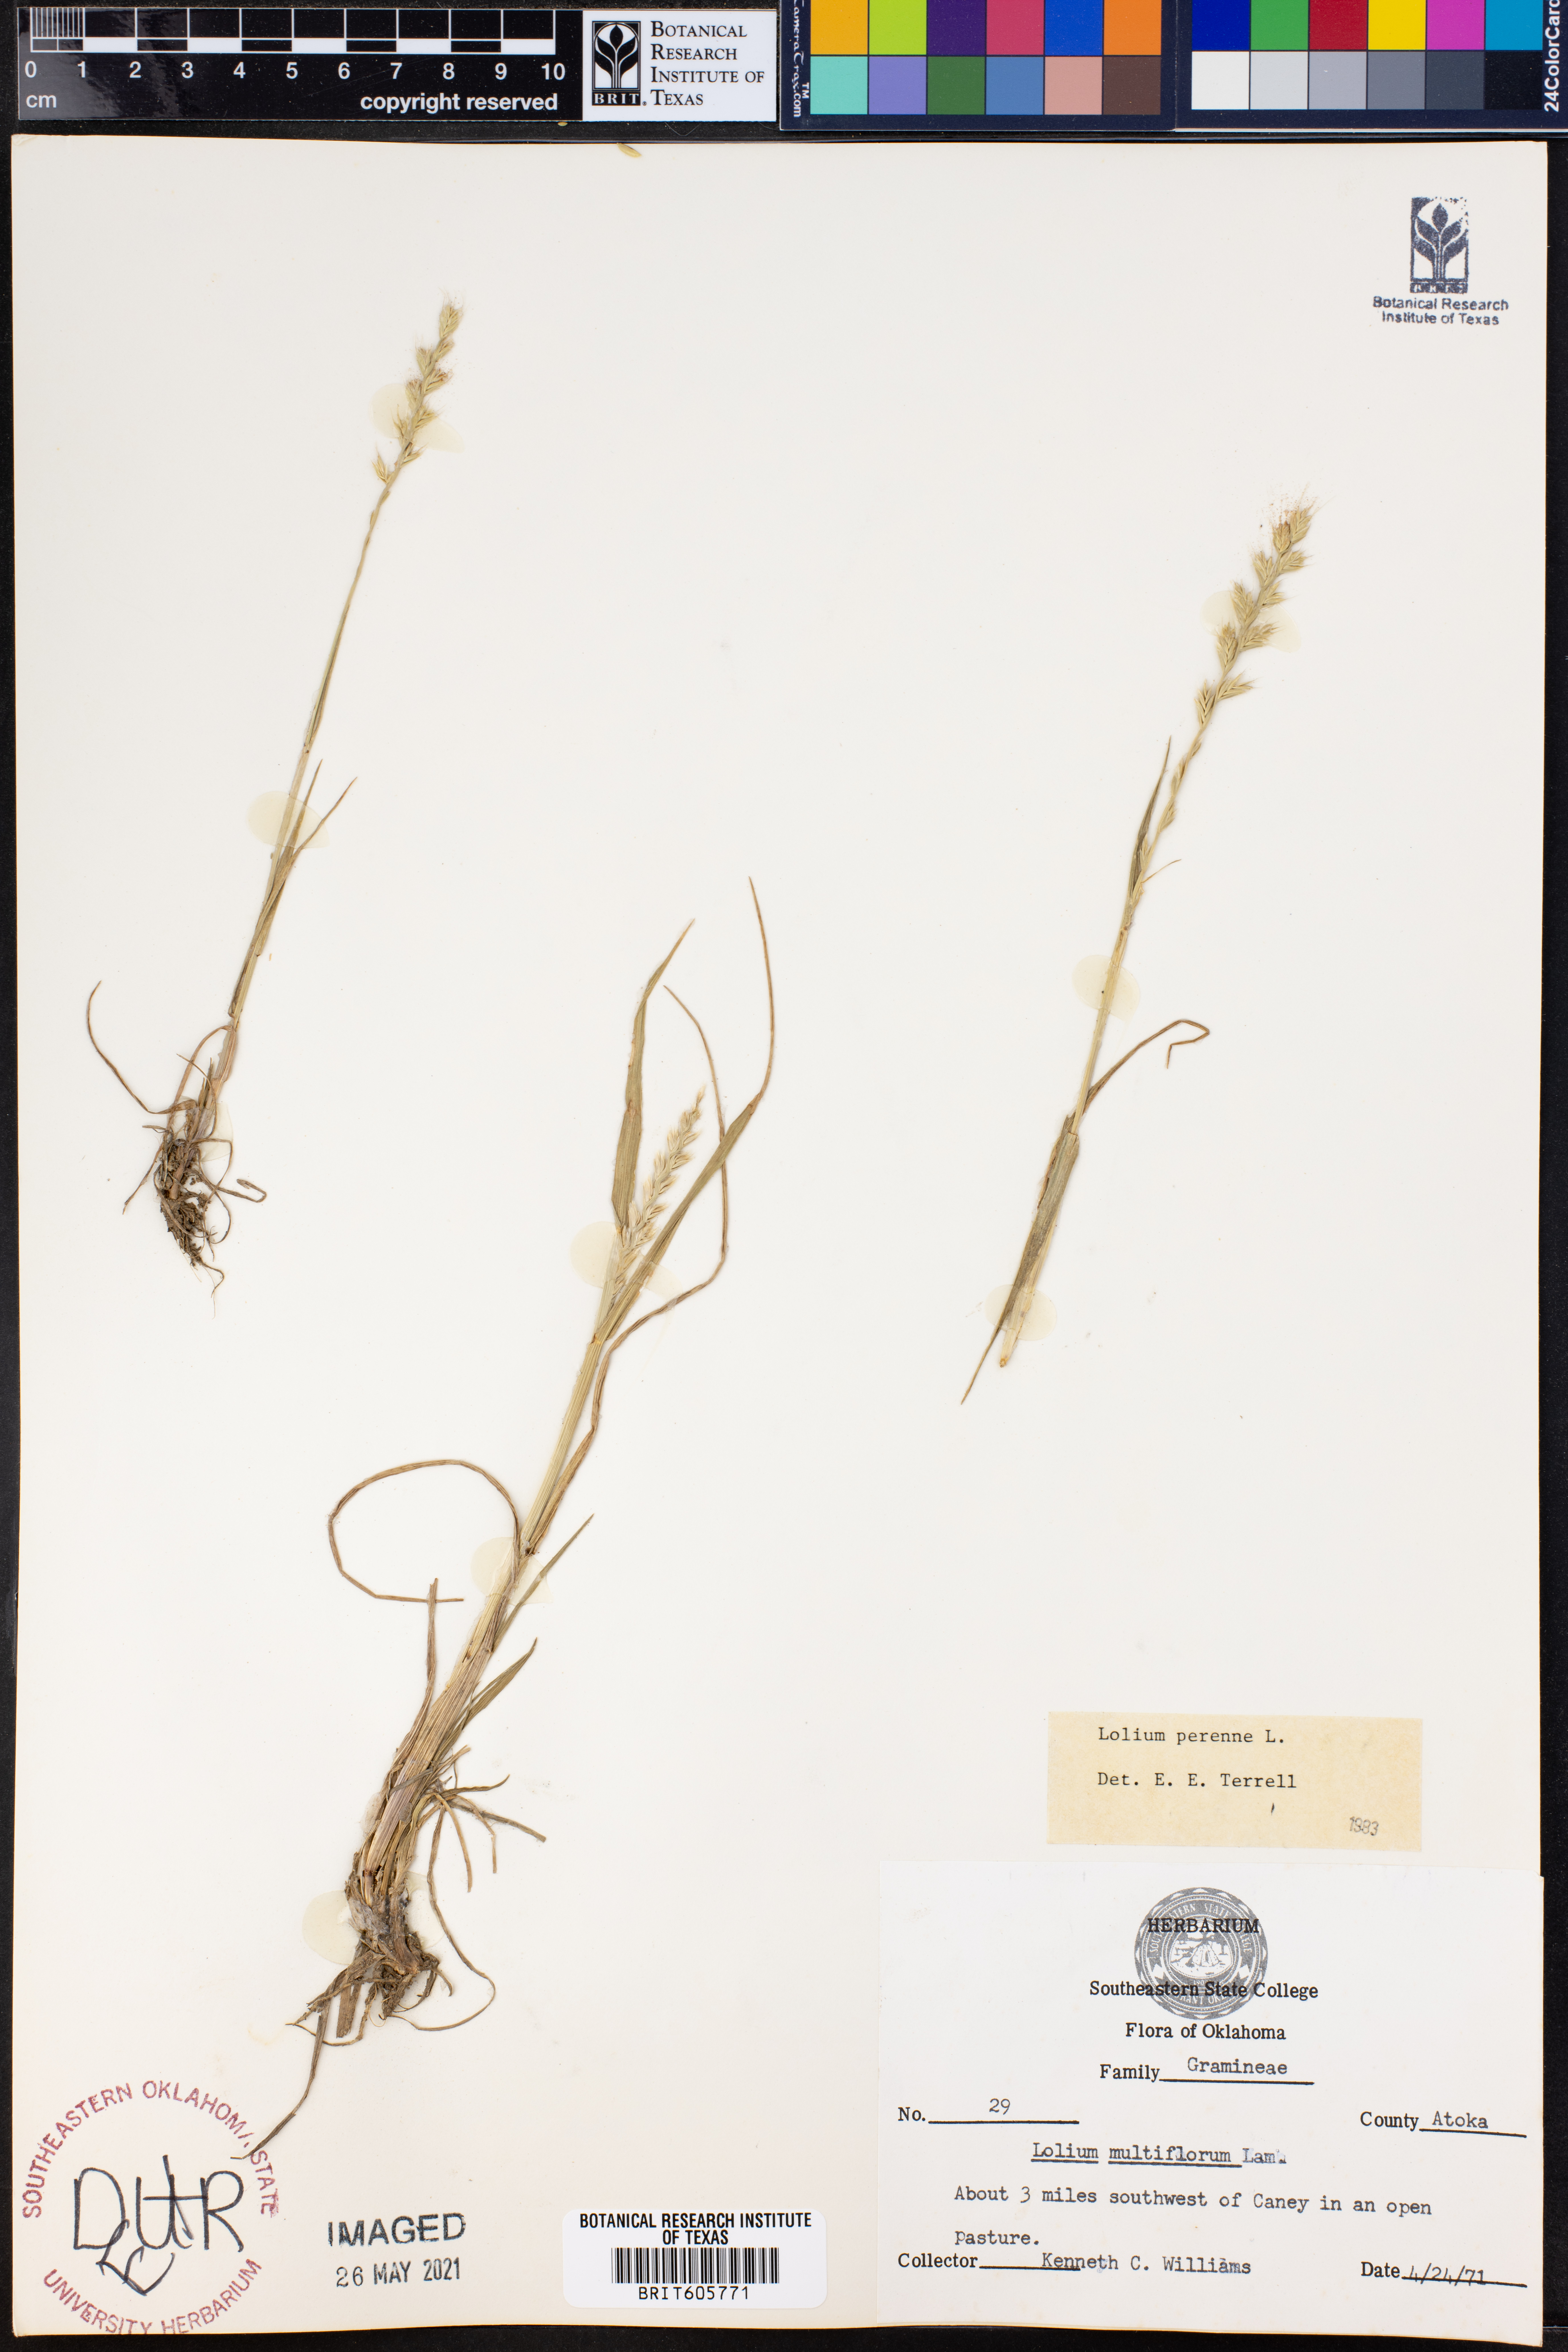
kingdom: Plantae
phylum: Tracheophyta
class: Liliopsida
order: Poales
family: Poaceae
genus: Lolium
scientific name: Lolium perenne
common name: Perennial ryegrass
